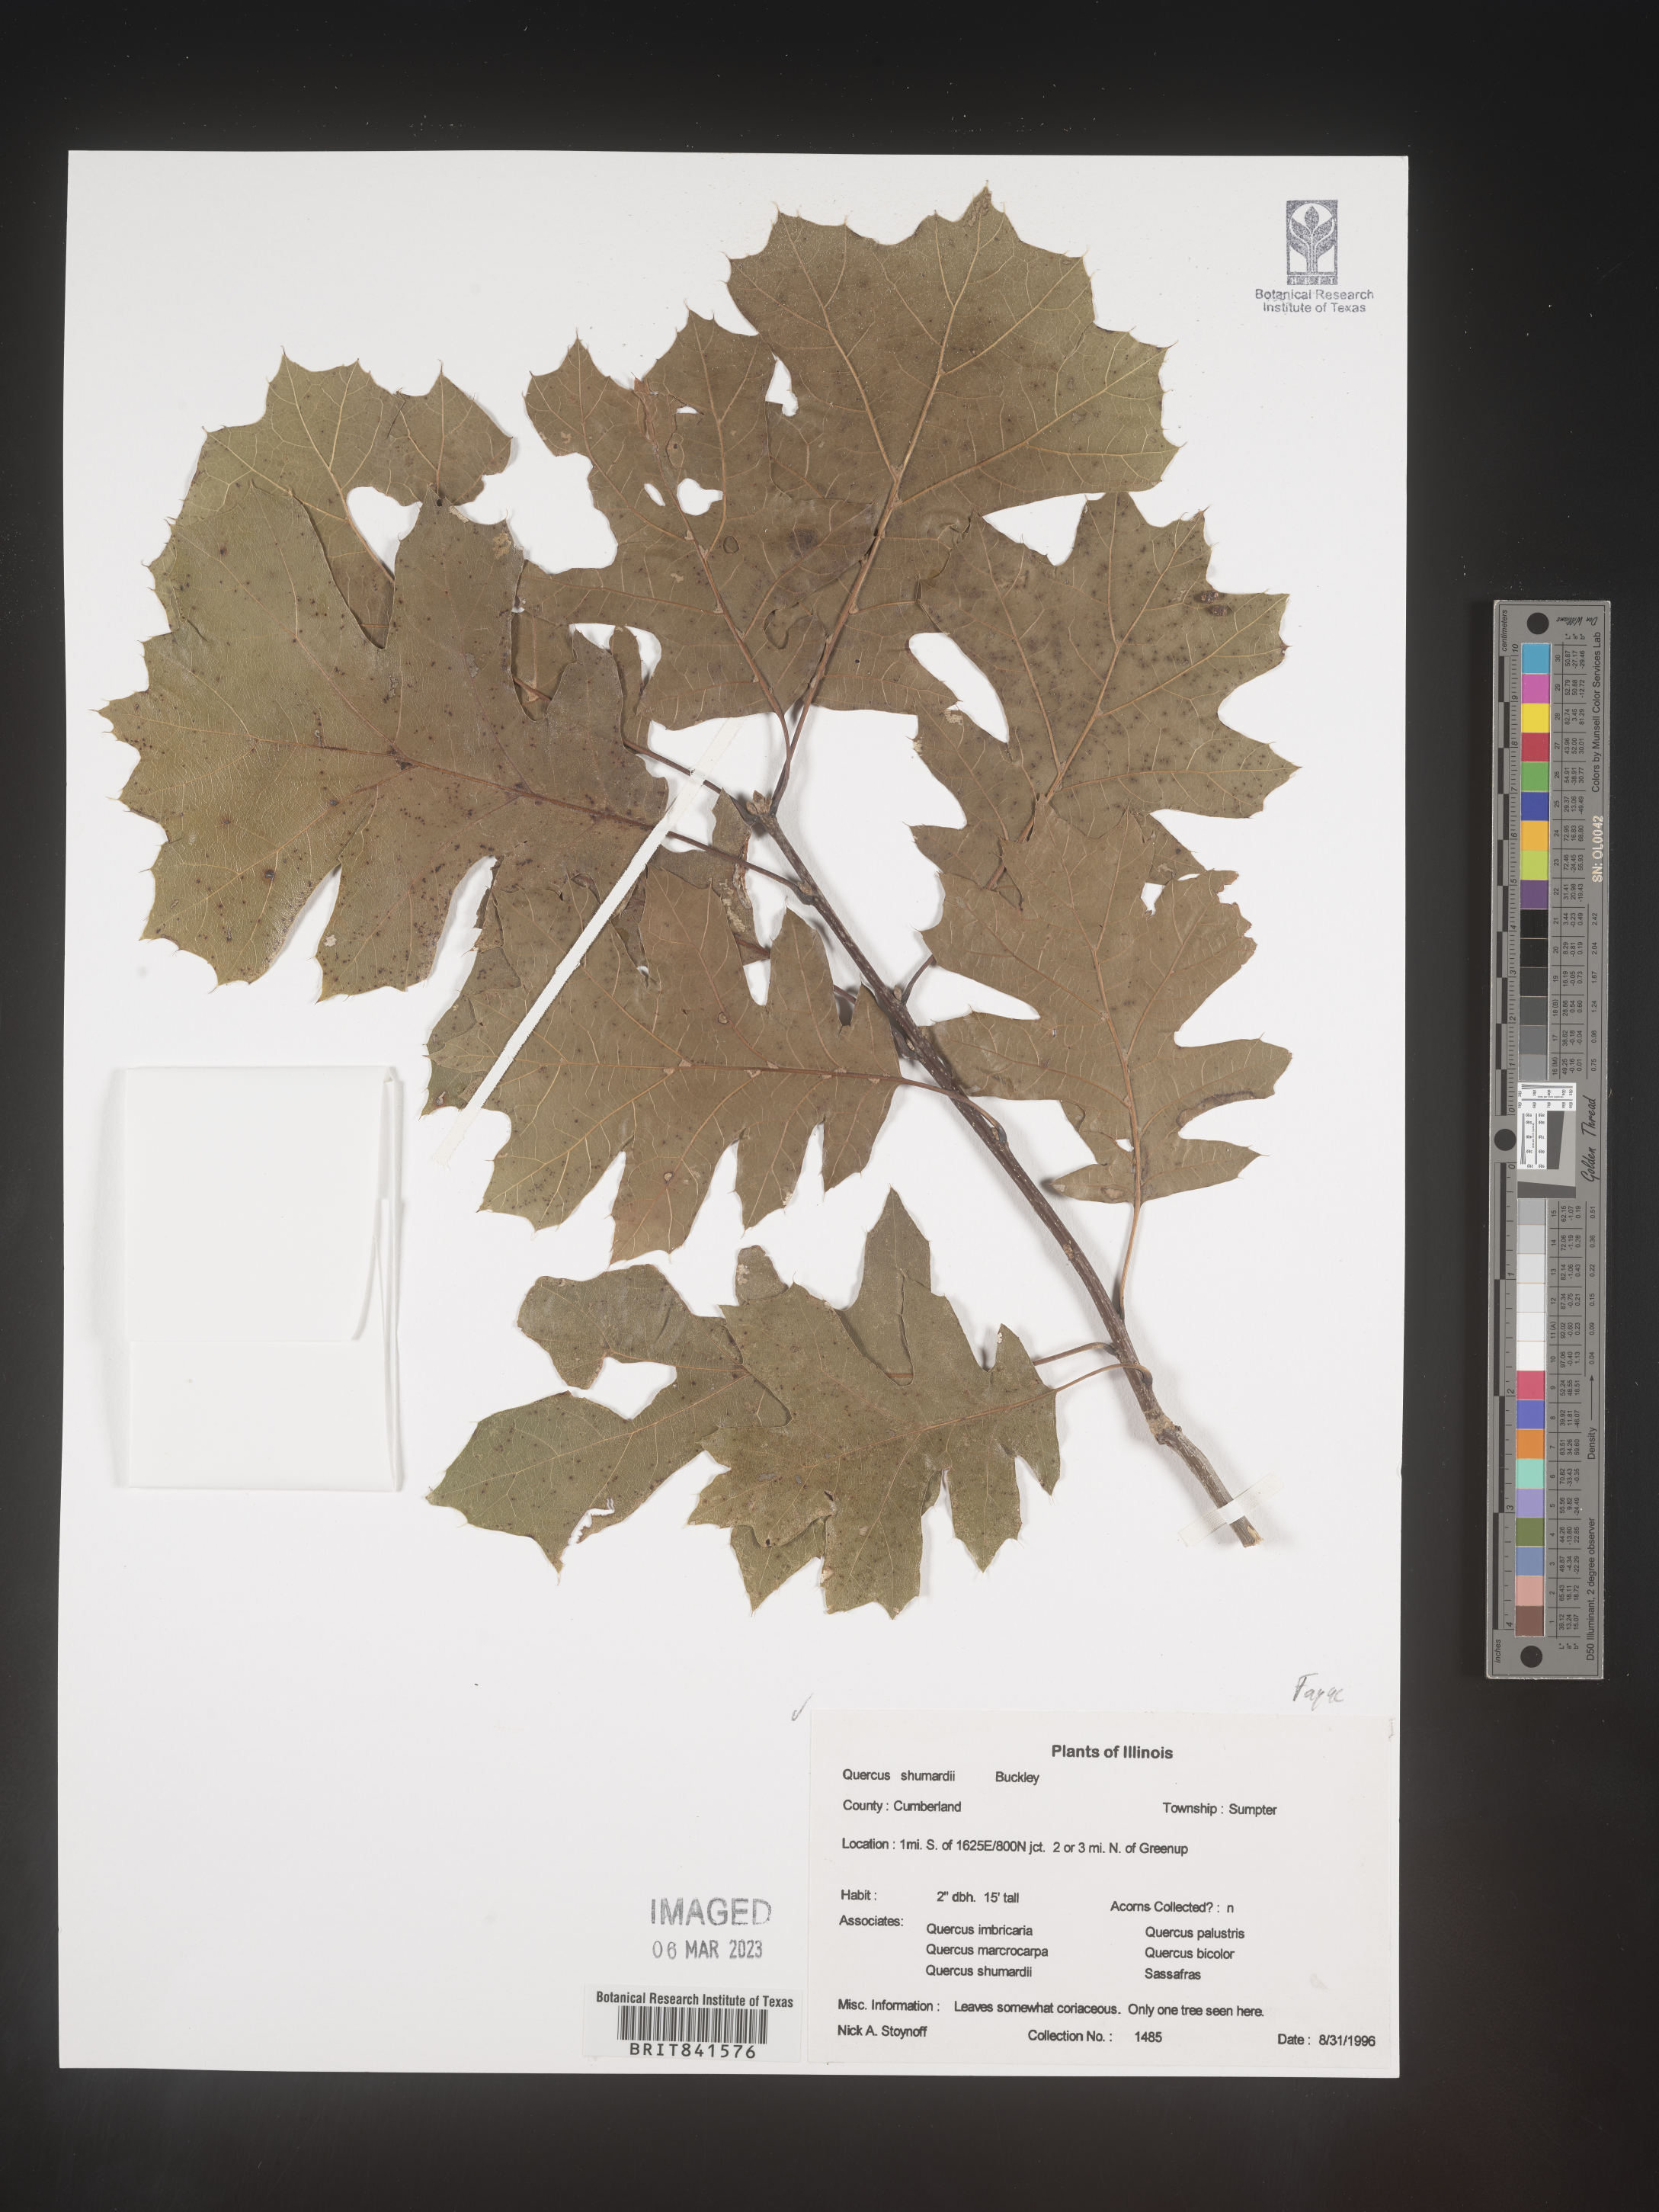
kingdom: Plantae
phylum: Tracheophyta
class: Magnoliopsida
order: Fagales
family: Fagaceae
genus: Quercus
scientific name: Quercus shumardii
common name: Shumard oak
